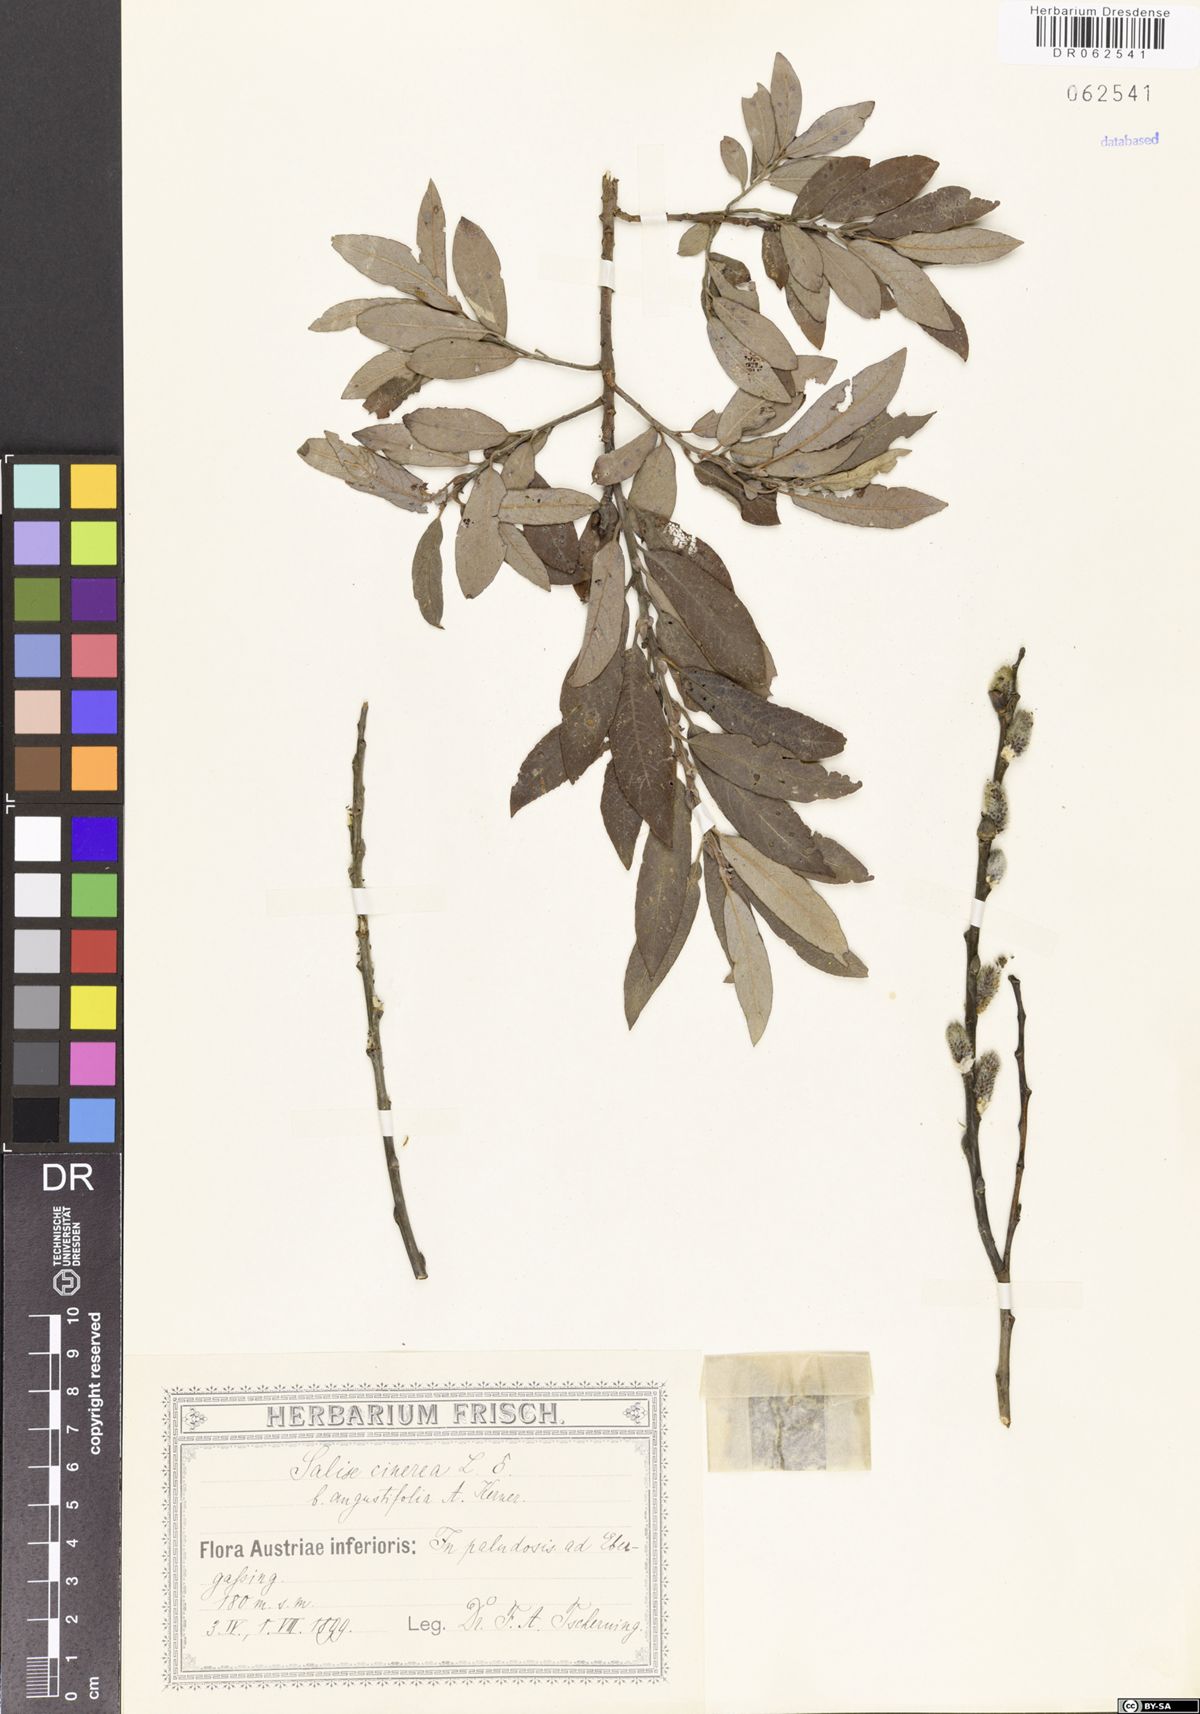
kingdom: Plantae
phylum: Tracheophyta
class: Magnoliopsida
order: Malpighiales
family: Salicaceae
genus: Salix
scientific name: Salix cinerea
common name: Common sallow
